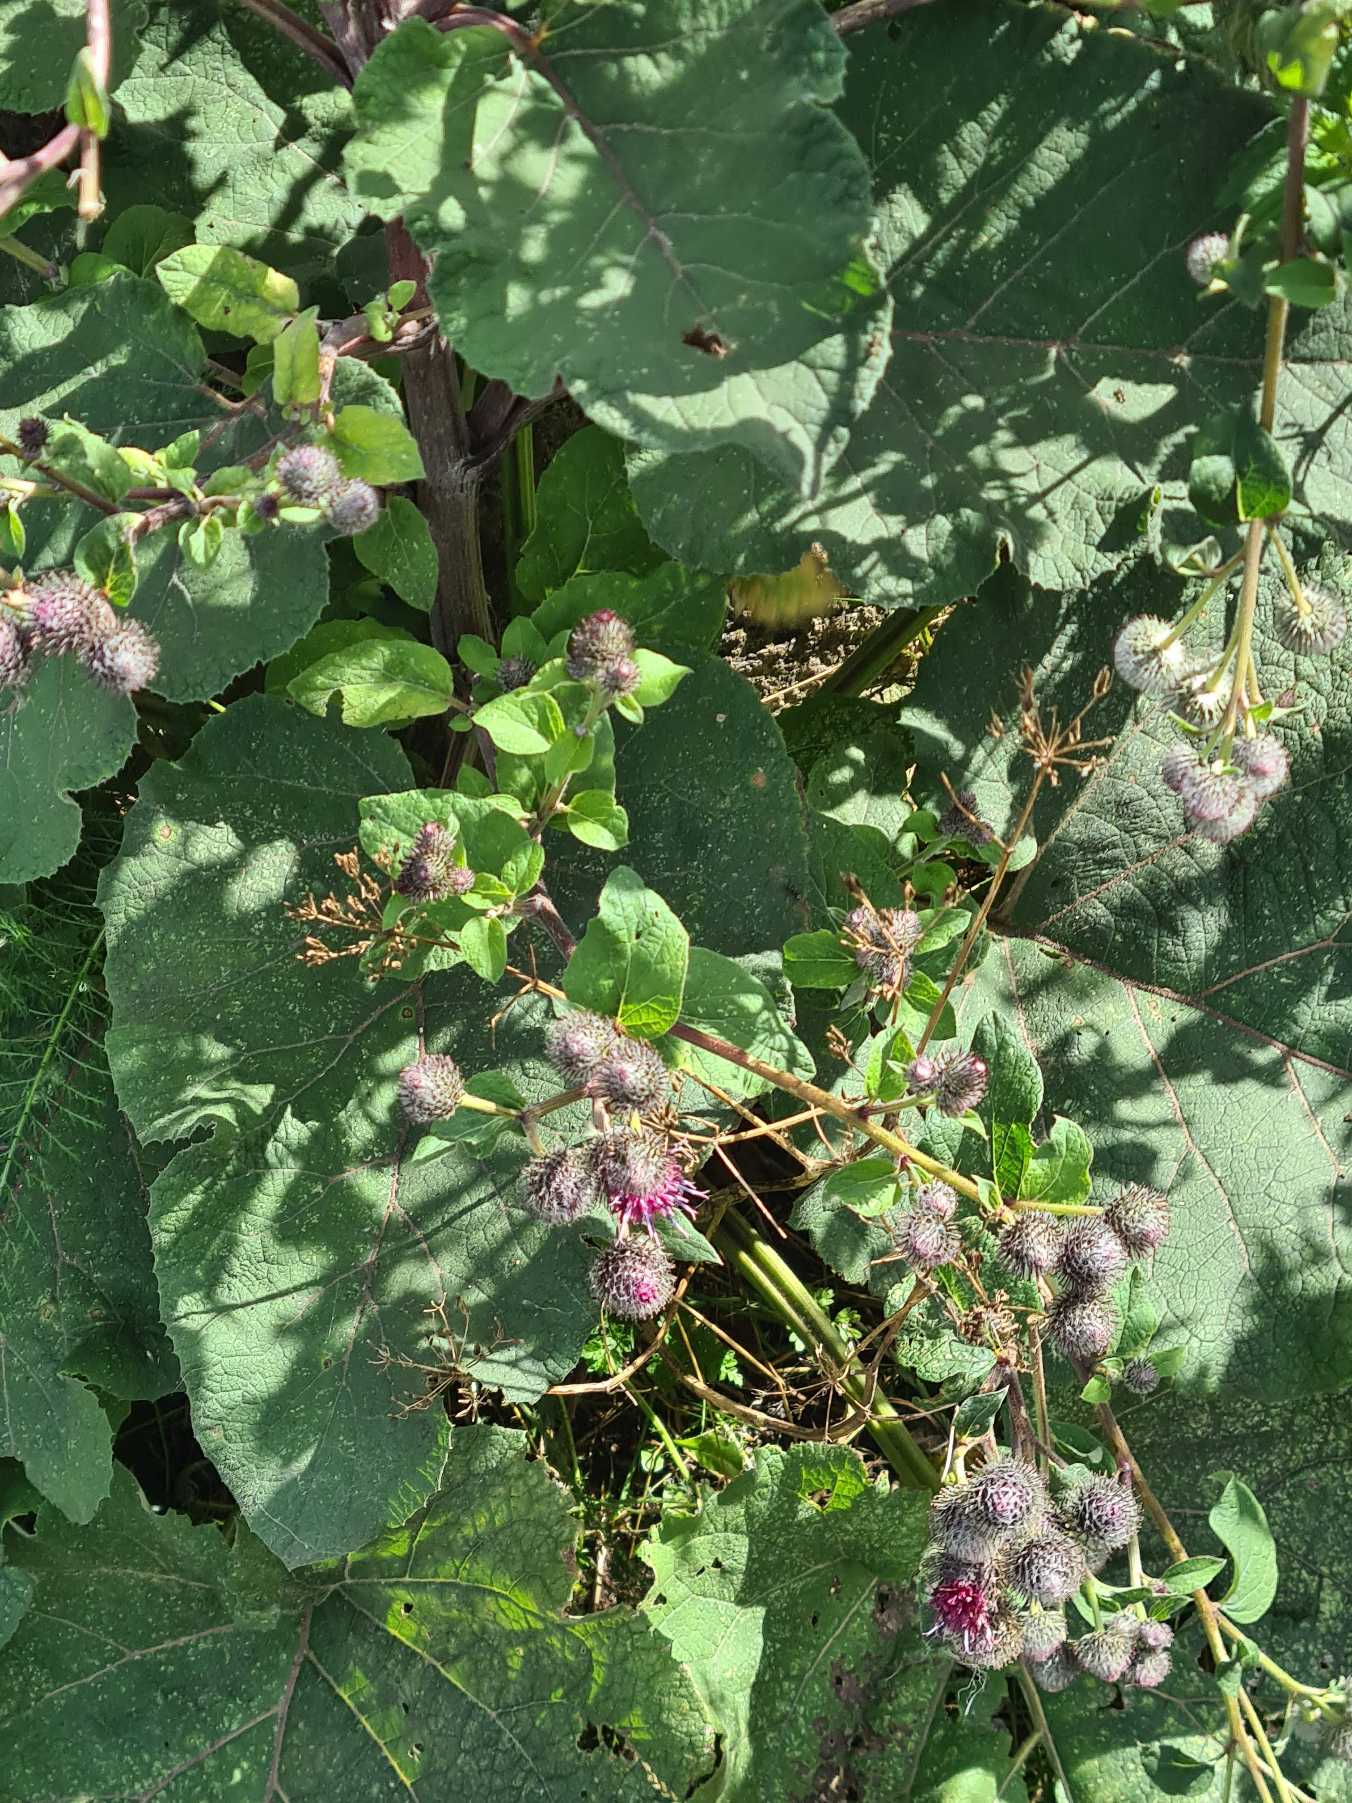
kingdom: Plantae
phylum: Tracheophyta
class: Magnoliopsida
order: Asterales
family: Asteraceae
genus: Arctium
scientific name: Arctium tomentosum
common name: Filtet burre
